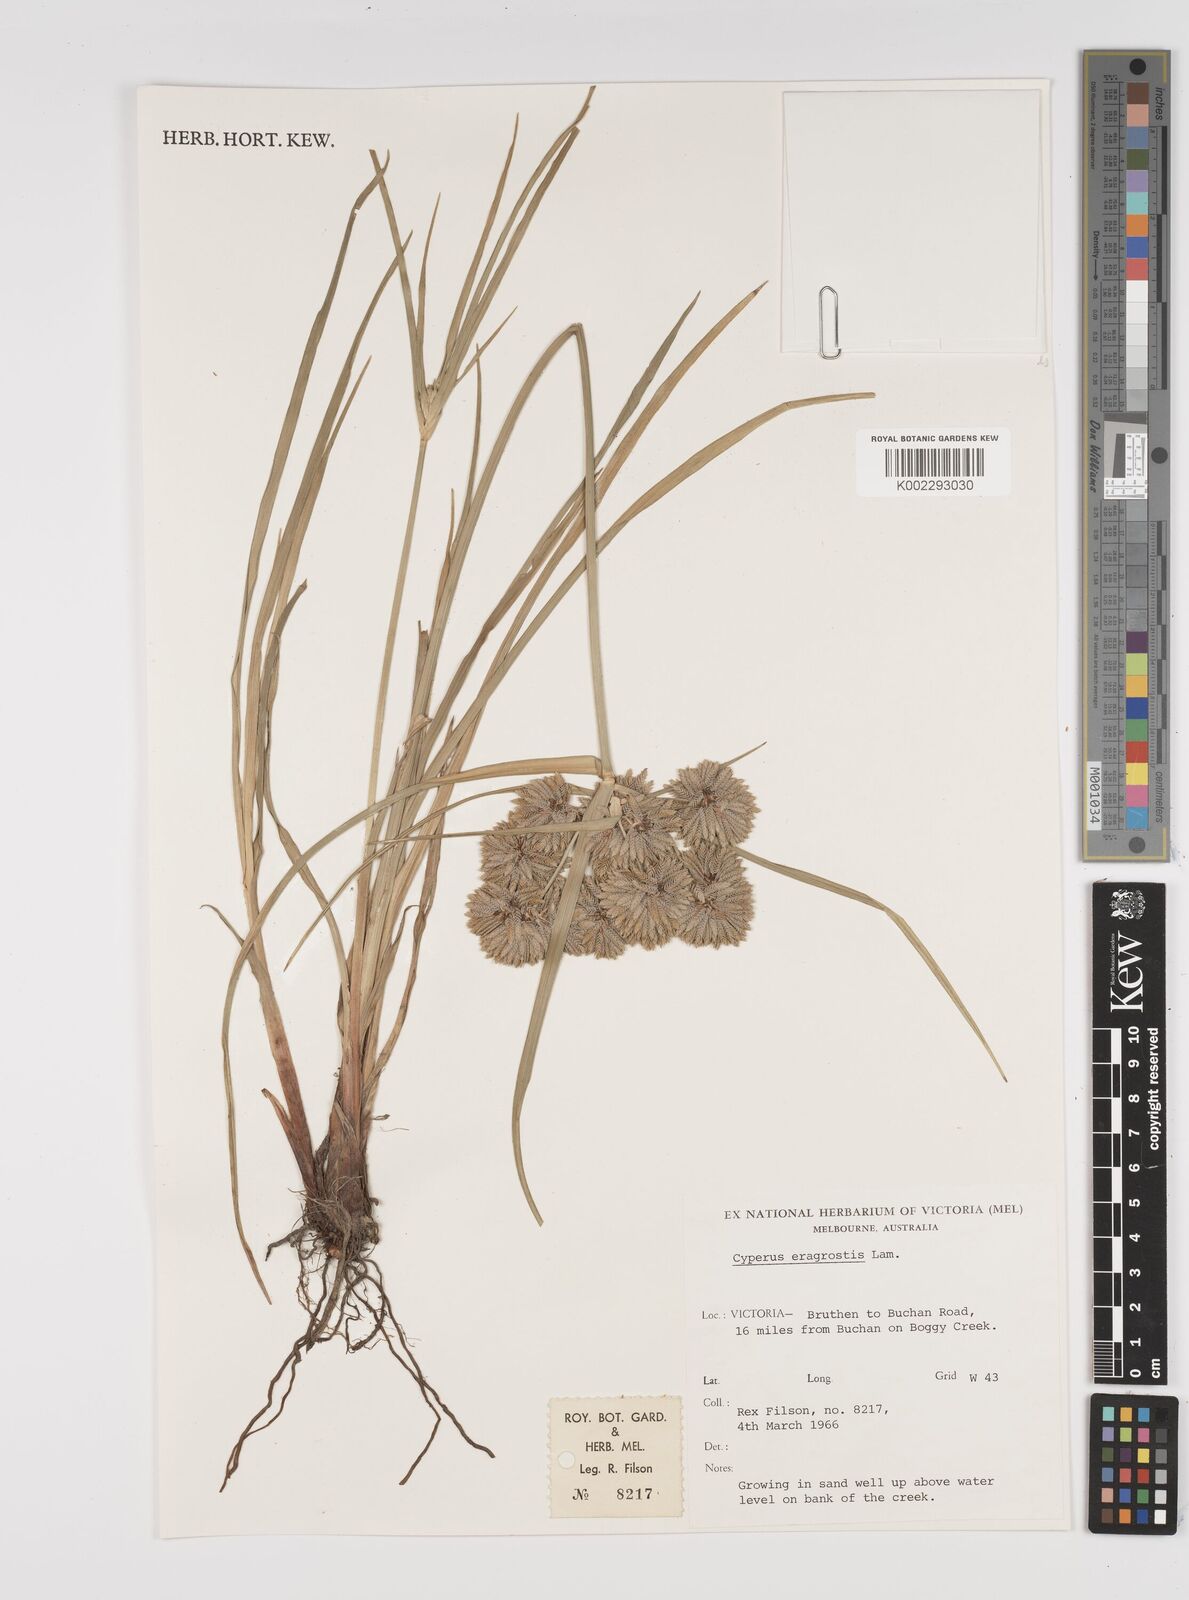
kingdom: Plantae
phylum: Tracheophyta
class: Liliopsida
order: Poales
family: Cyperaceae
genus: Cyperus
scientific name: Cyperus eragrostis
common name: Tall flatsedge
